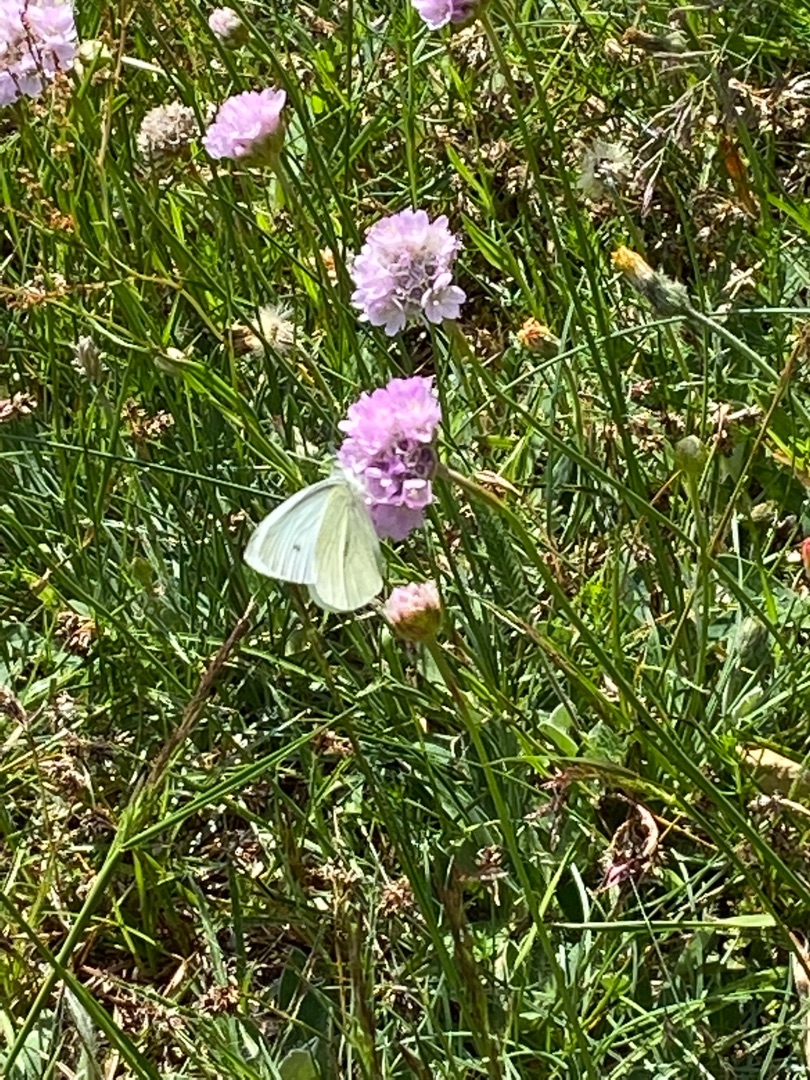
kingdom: Animalia
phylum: Arthropoda
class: Insecta
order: Lepidoptera
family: Pieridae
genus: Pieris
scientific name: Pieris rapae
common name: Lille kålsommerfugl
